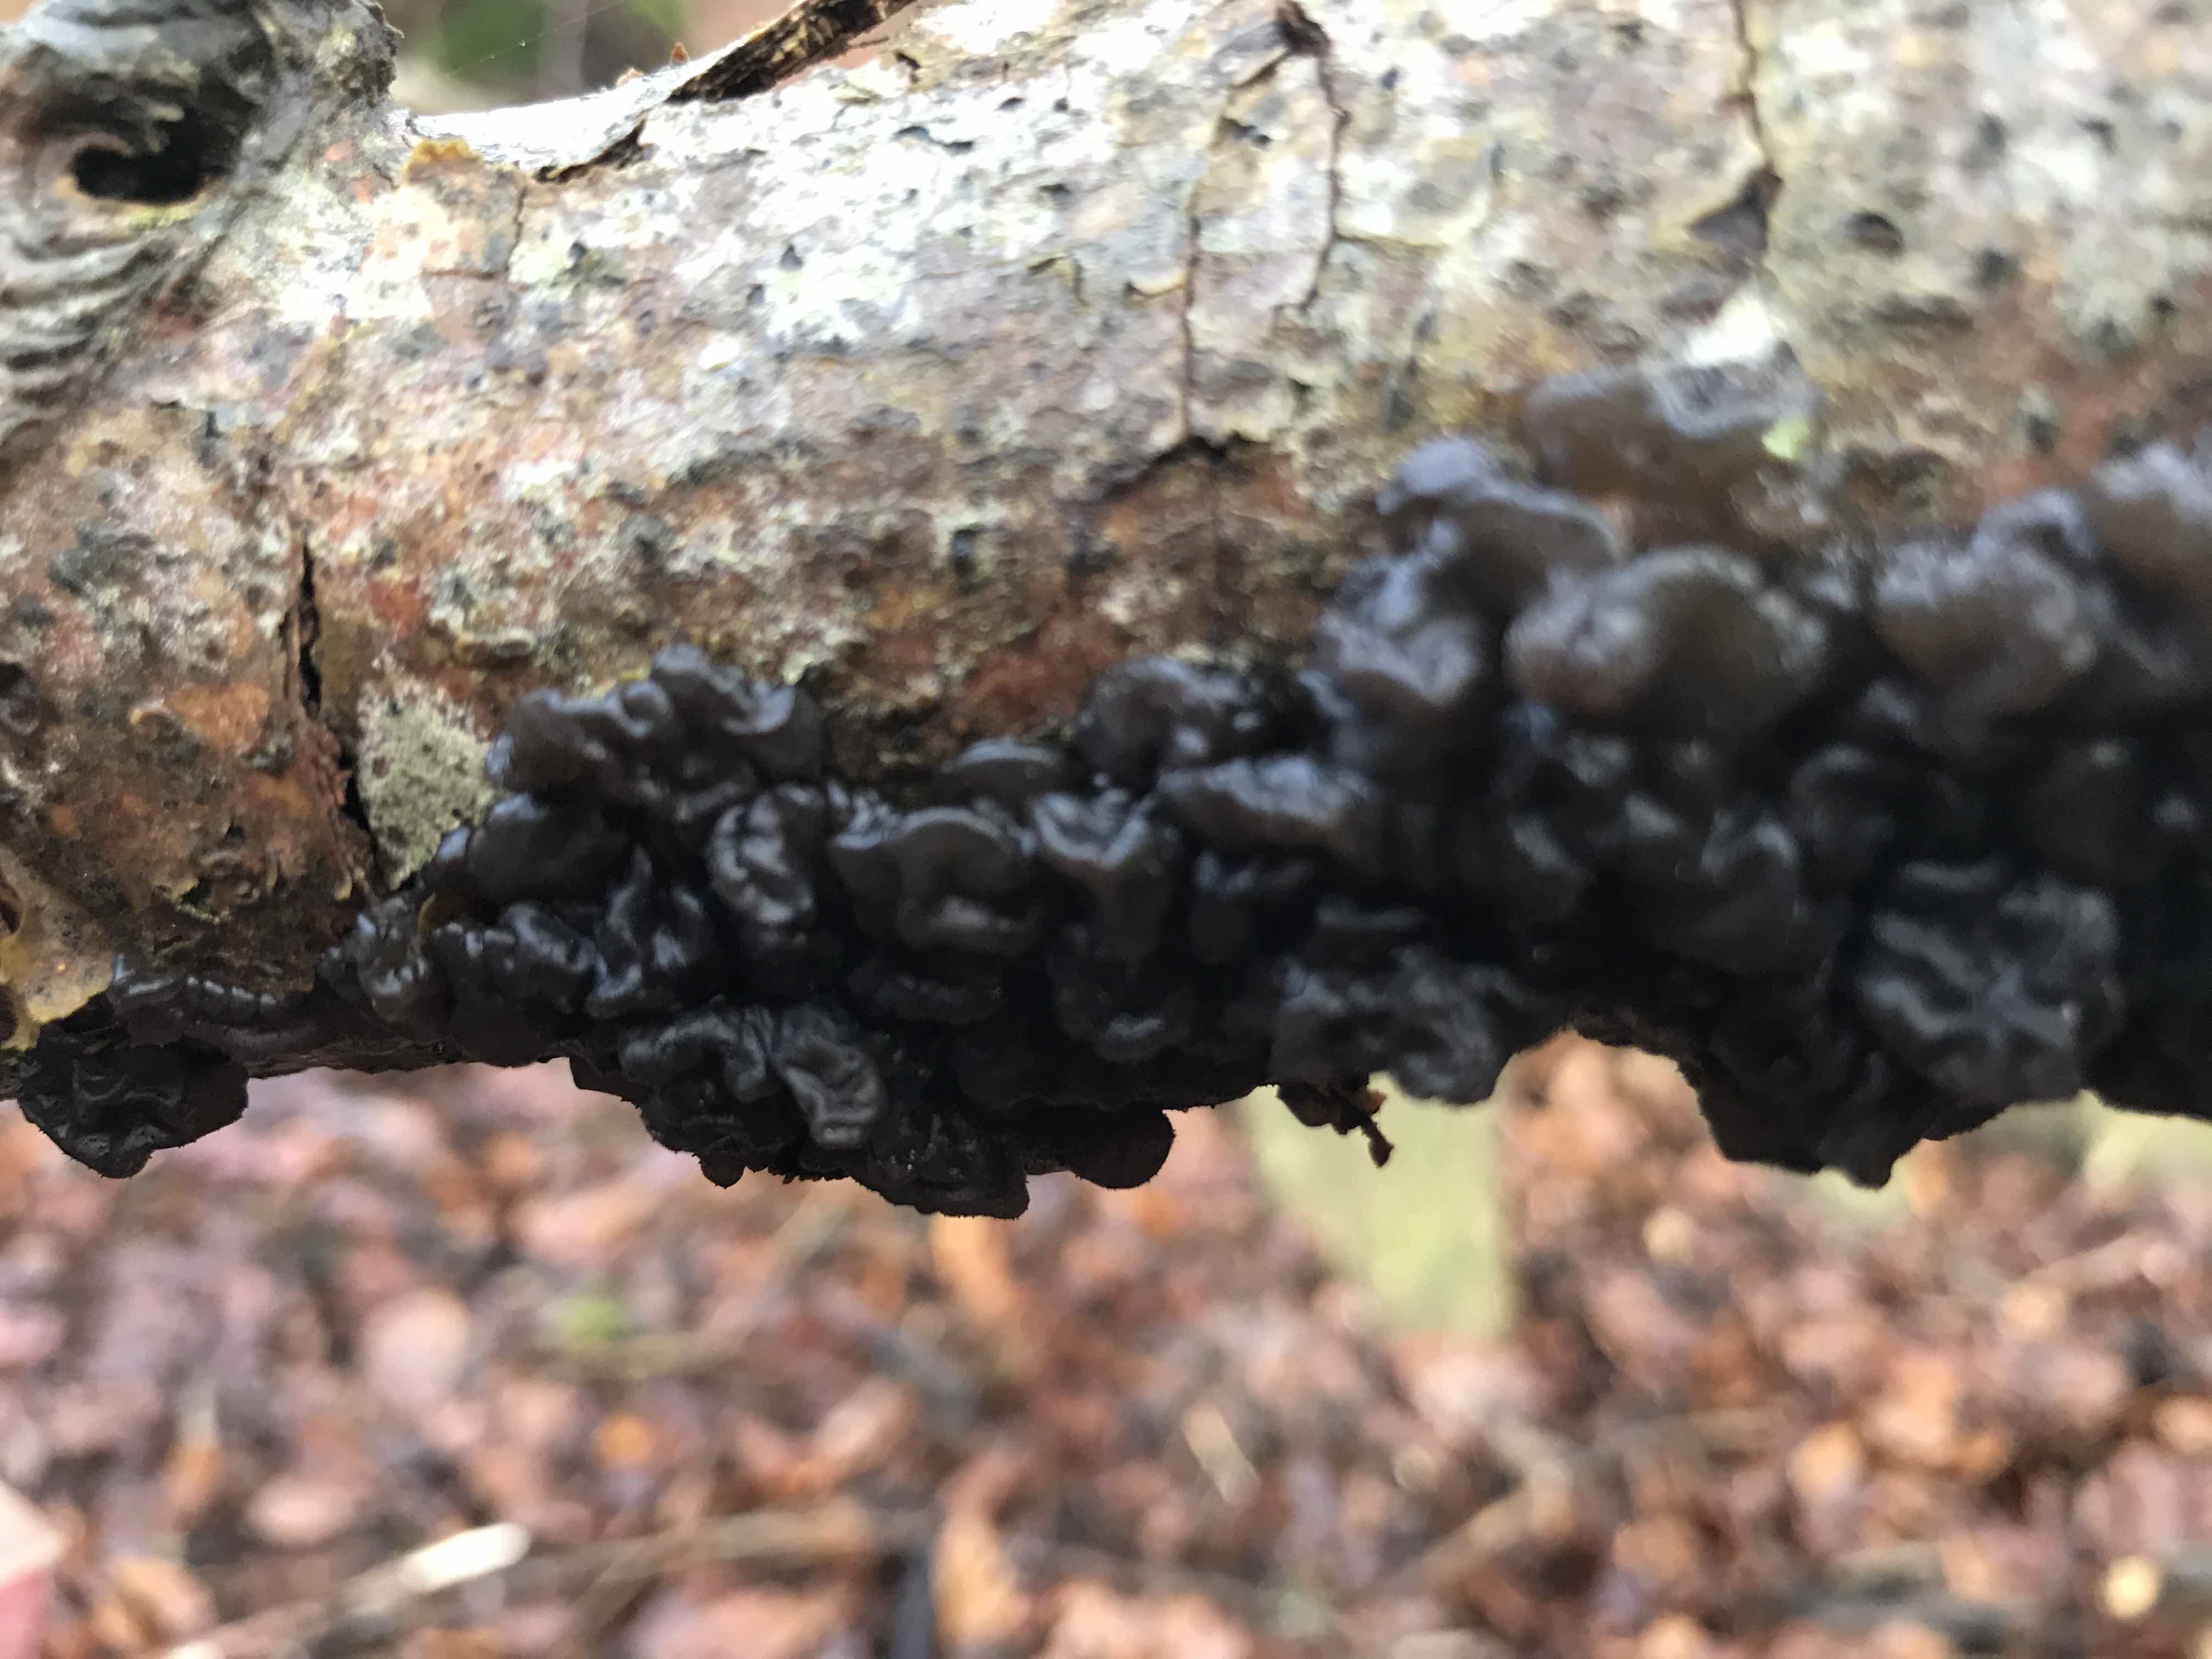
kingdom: Fungi
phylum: Basidiomycota
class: Agaricomycetes
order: Auriculariales
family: Auriculariaceae
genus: Exidia
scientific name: Exidia nigricans
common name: almindelig bævretop
